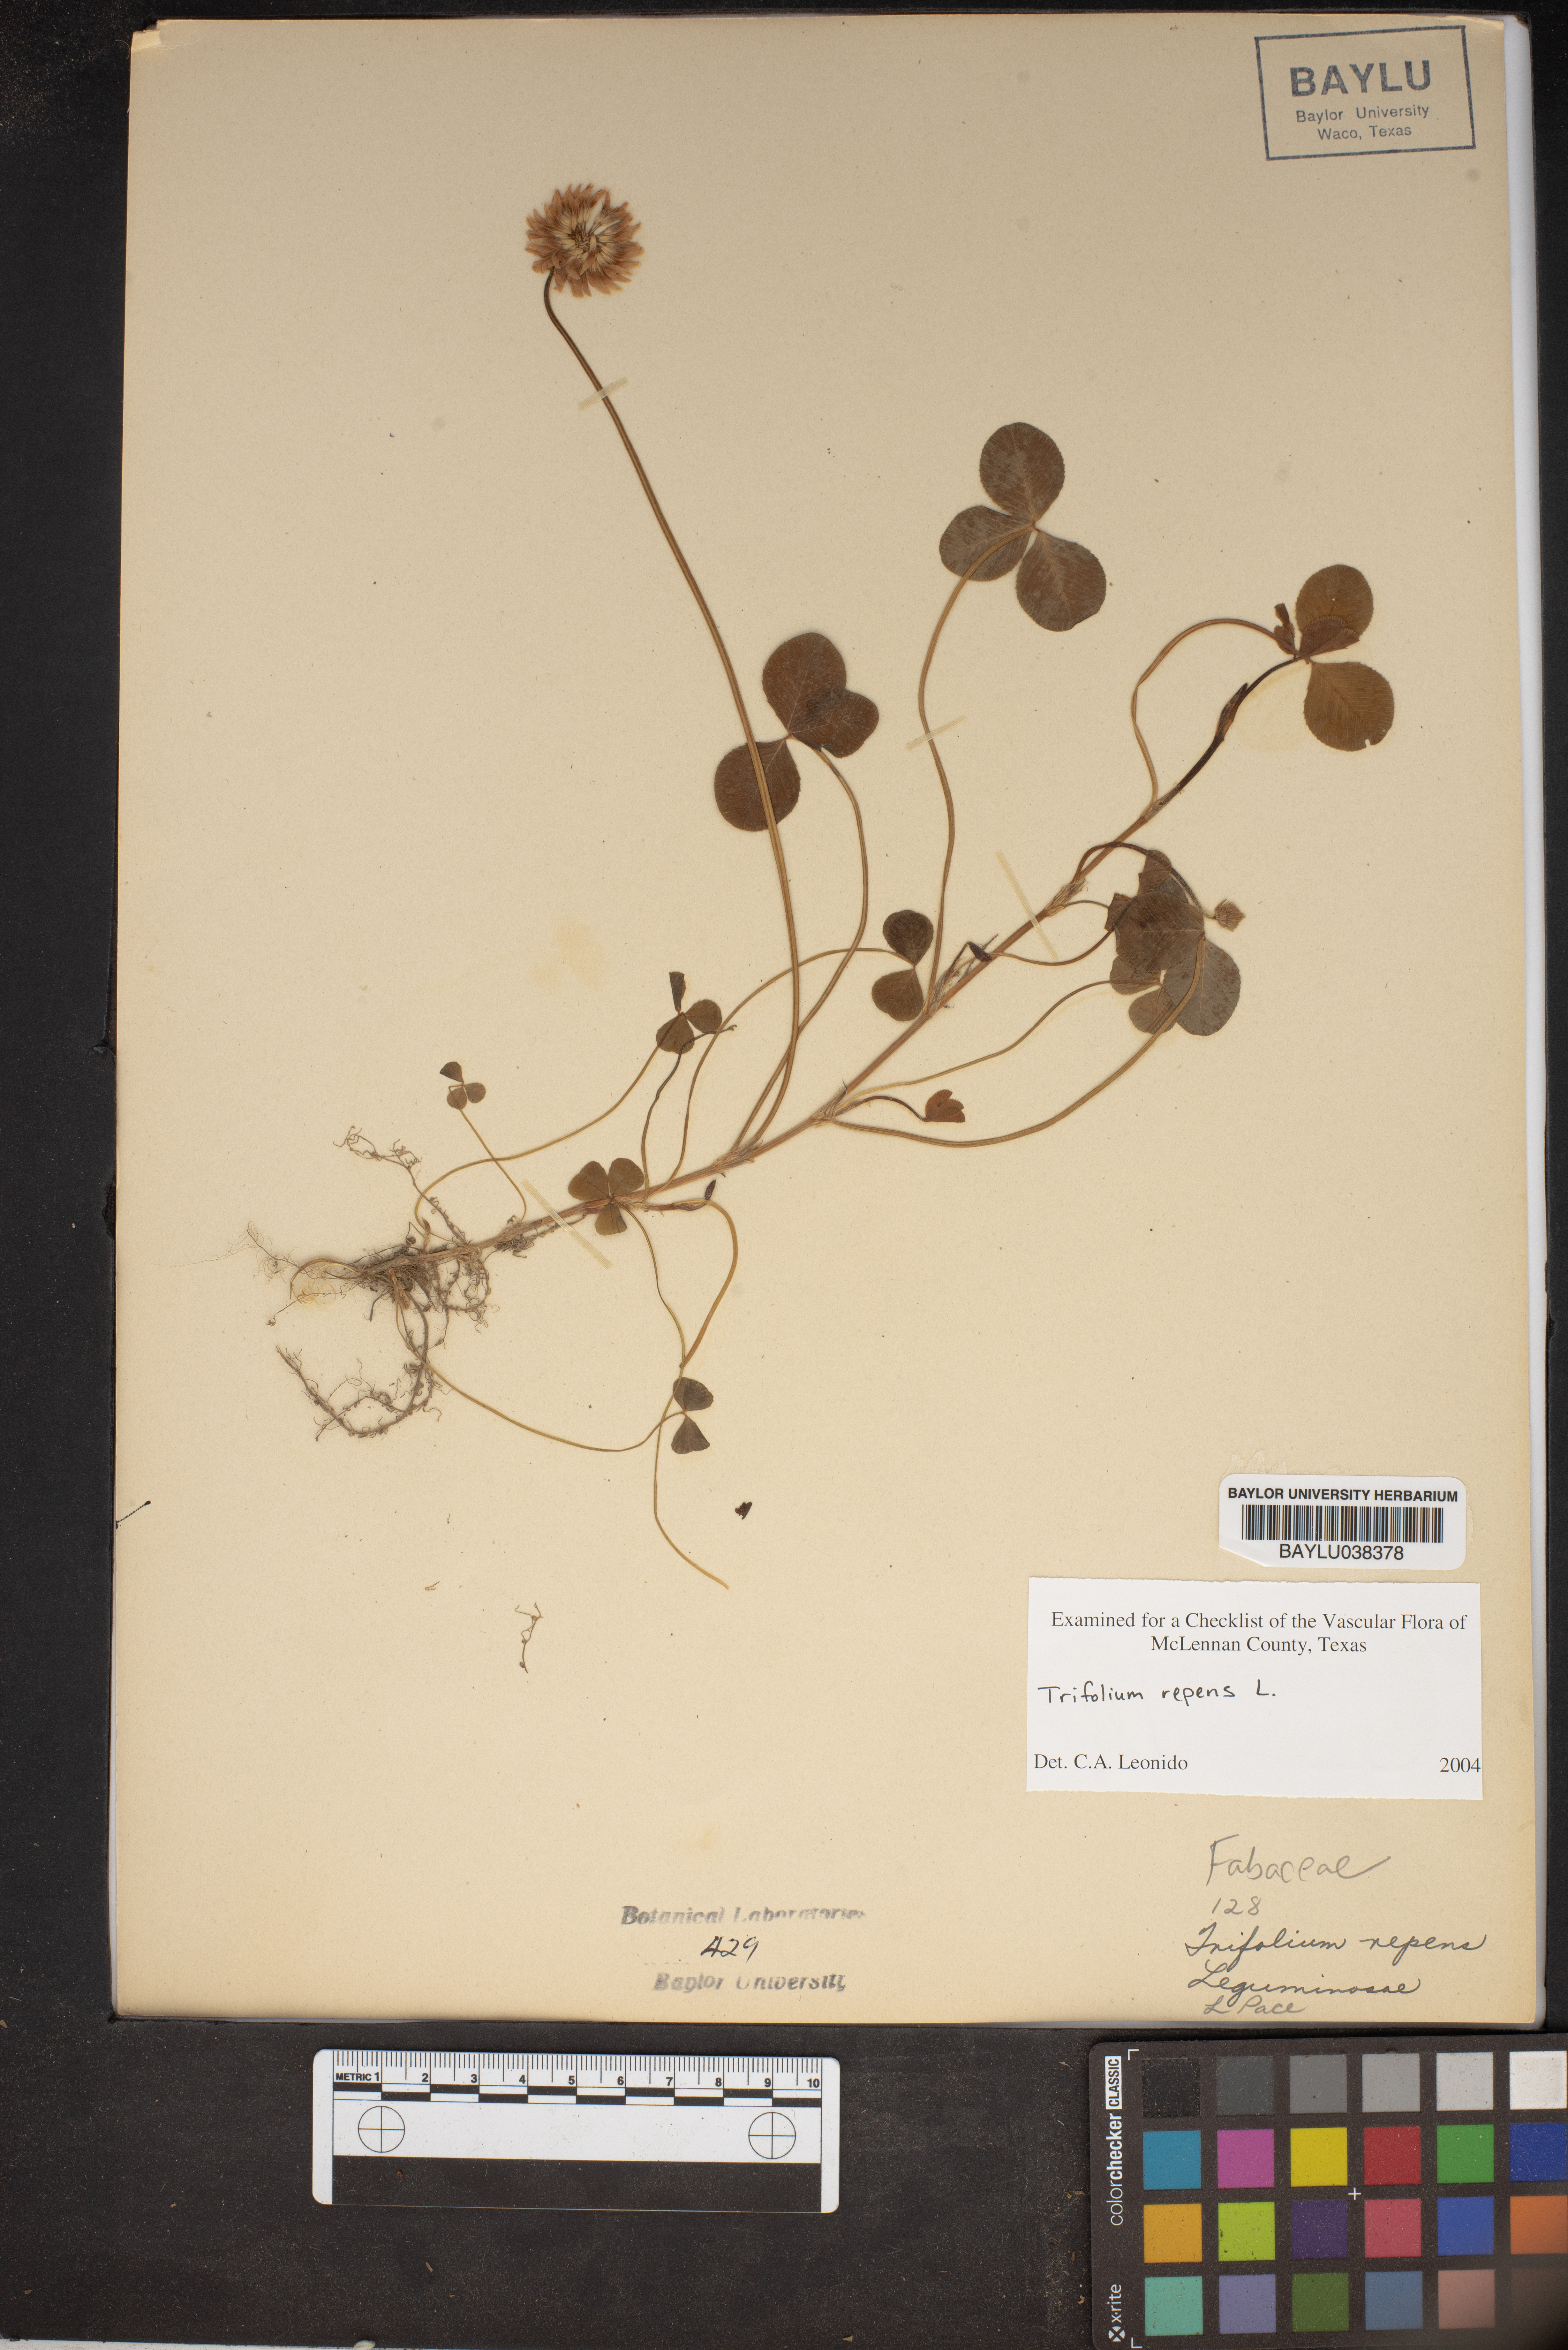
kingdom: Plantae
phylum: Tracheophyta
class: Magnoliopsida
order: Fabales
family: Fabaceae
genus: Trifolium
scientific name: Trifolium repens
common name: White clover
